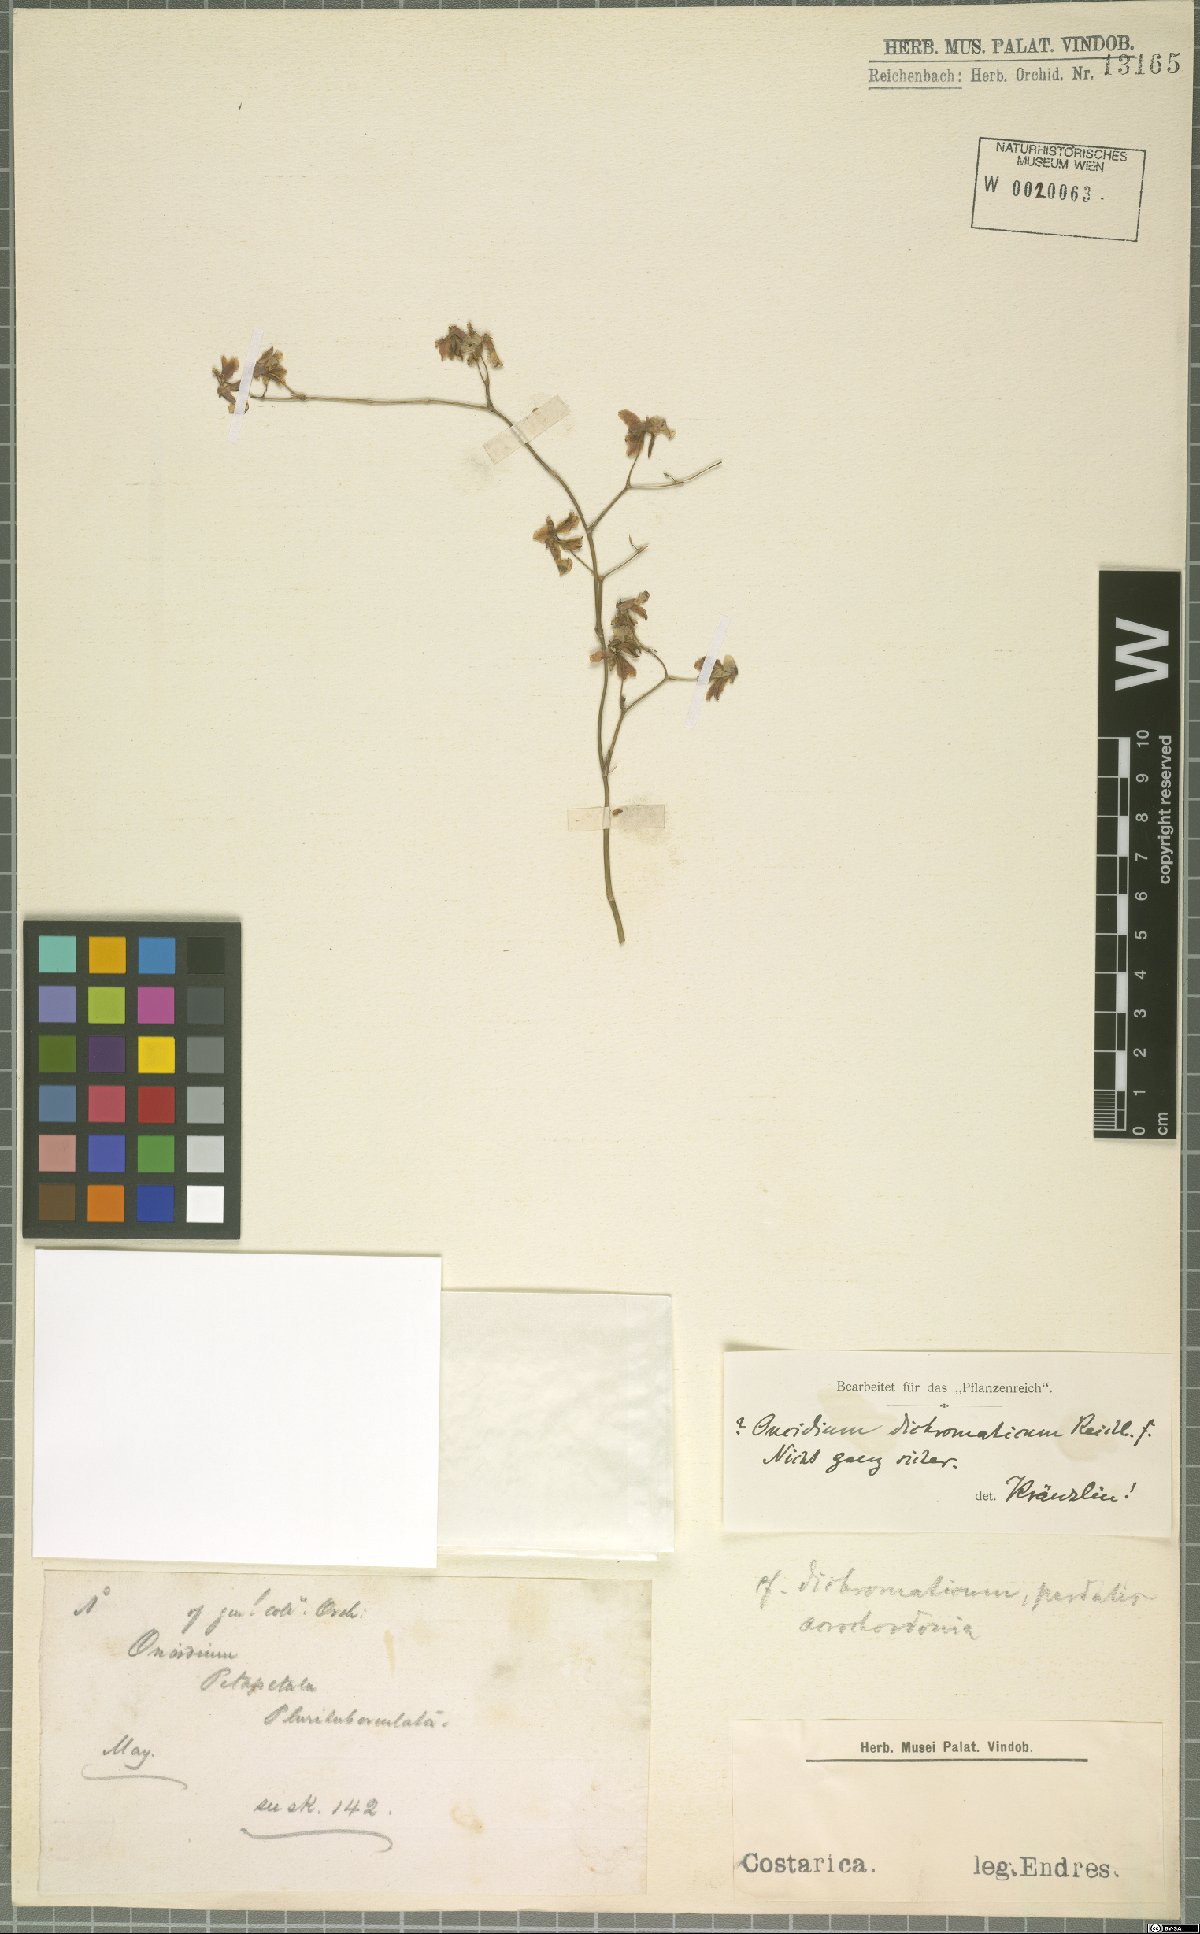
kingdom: Plantae
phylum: Tracheophyta
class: Liliopsida
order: Asparagales
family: Orchidaceae
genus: Oncidium
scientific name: Oncidium dichromaticum
